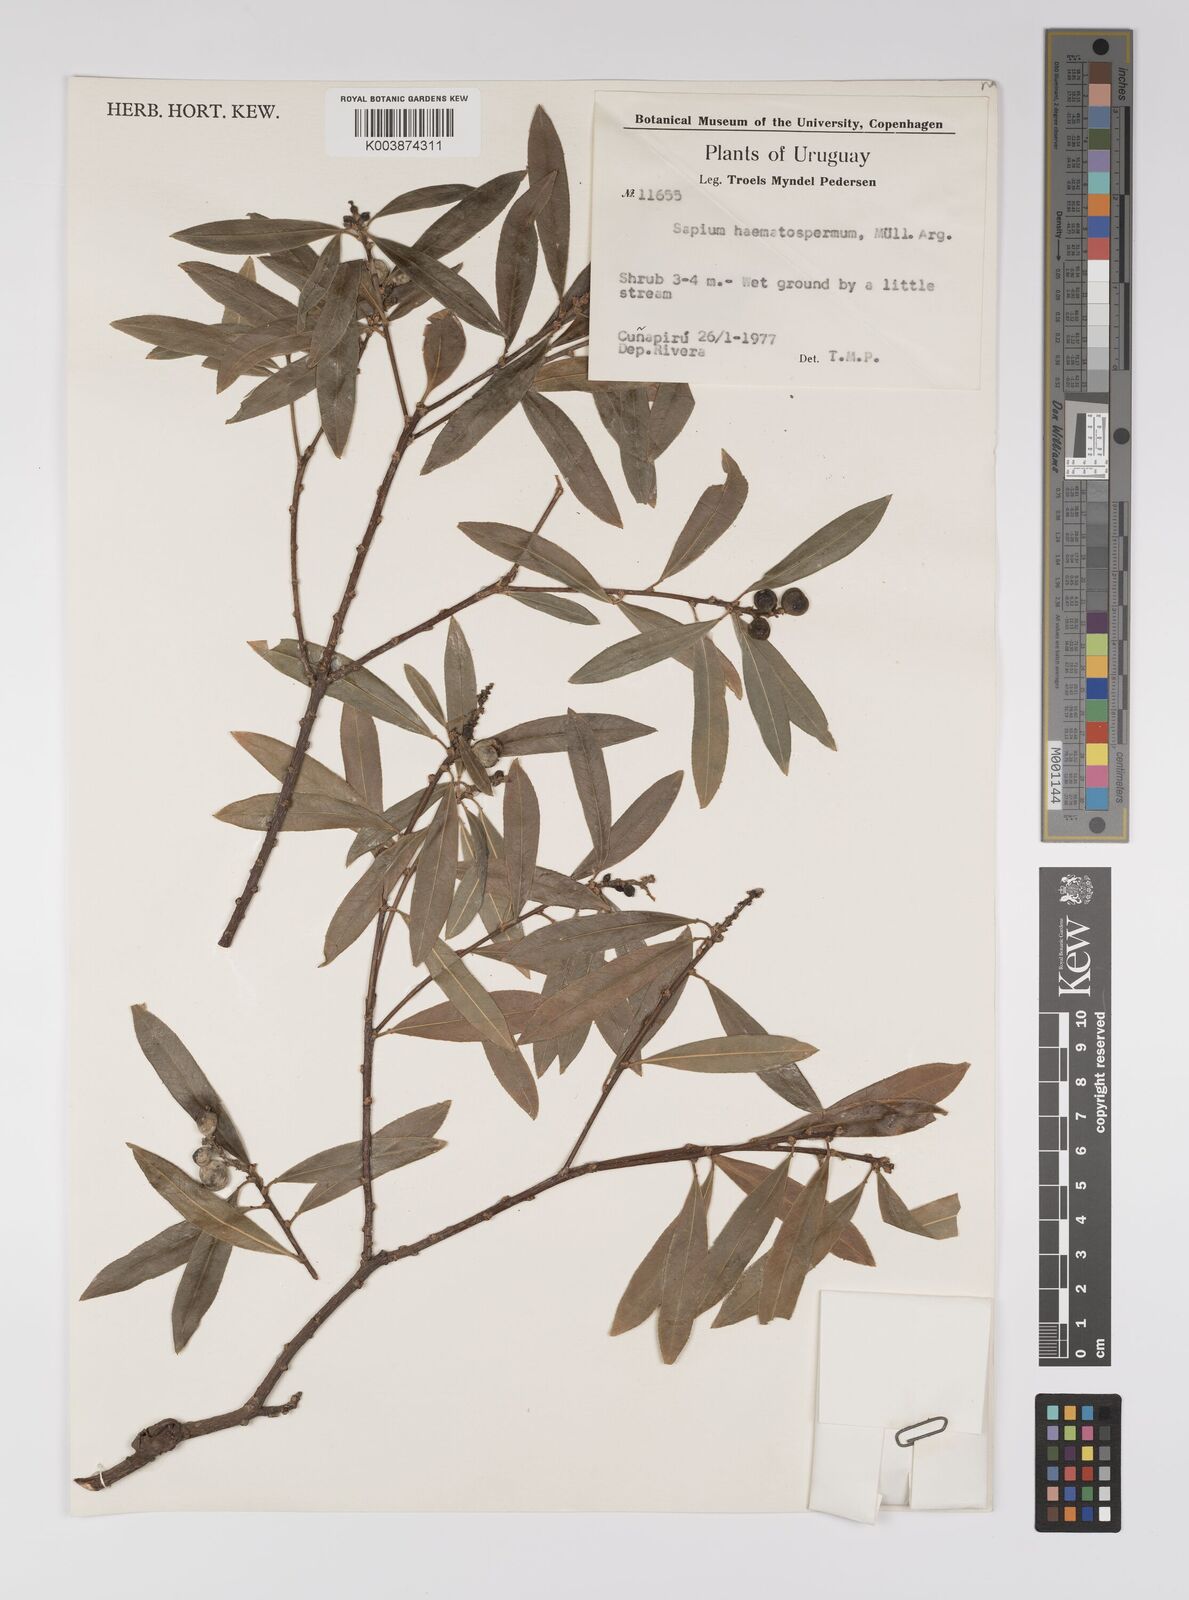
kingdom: Plantae
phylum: Tracheophyta
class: Magnoliopsida
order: Malpighiales
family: Euphorbiaceae
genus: Sapium
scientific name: Sapium haematospermum
